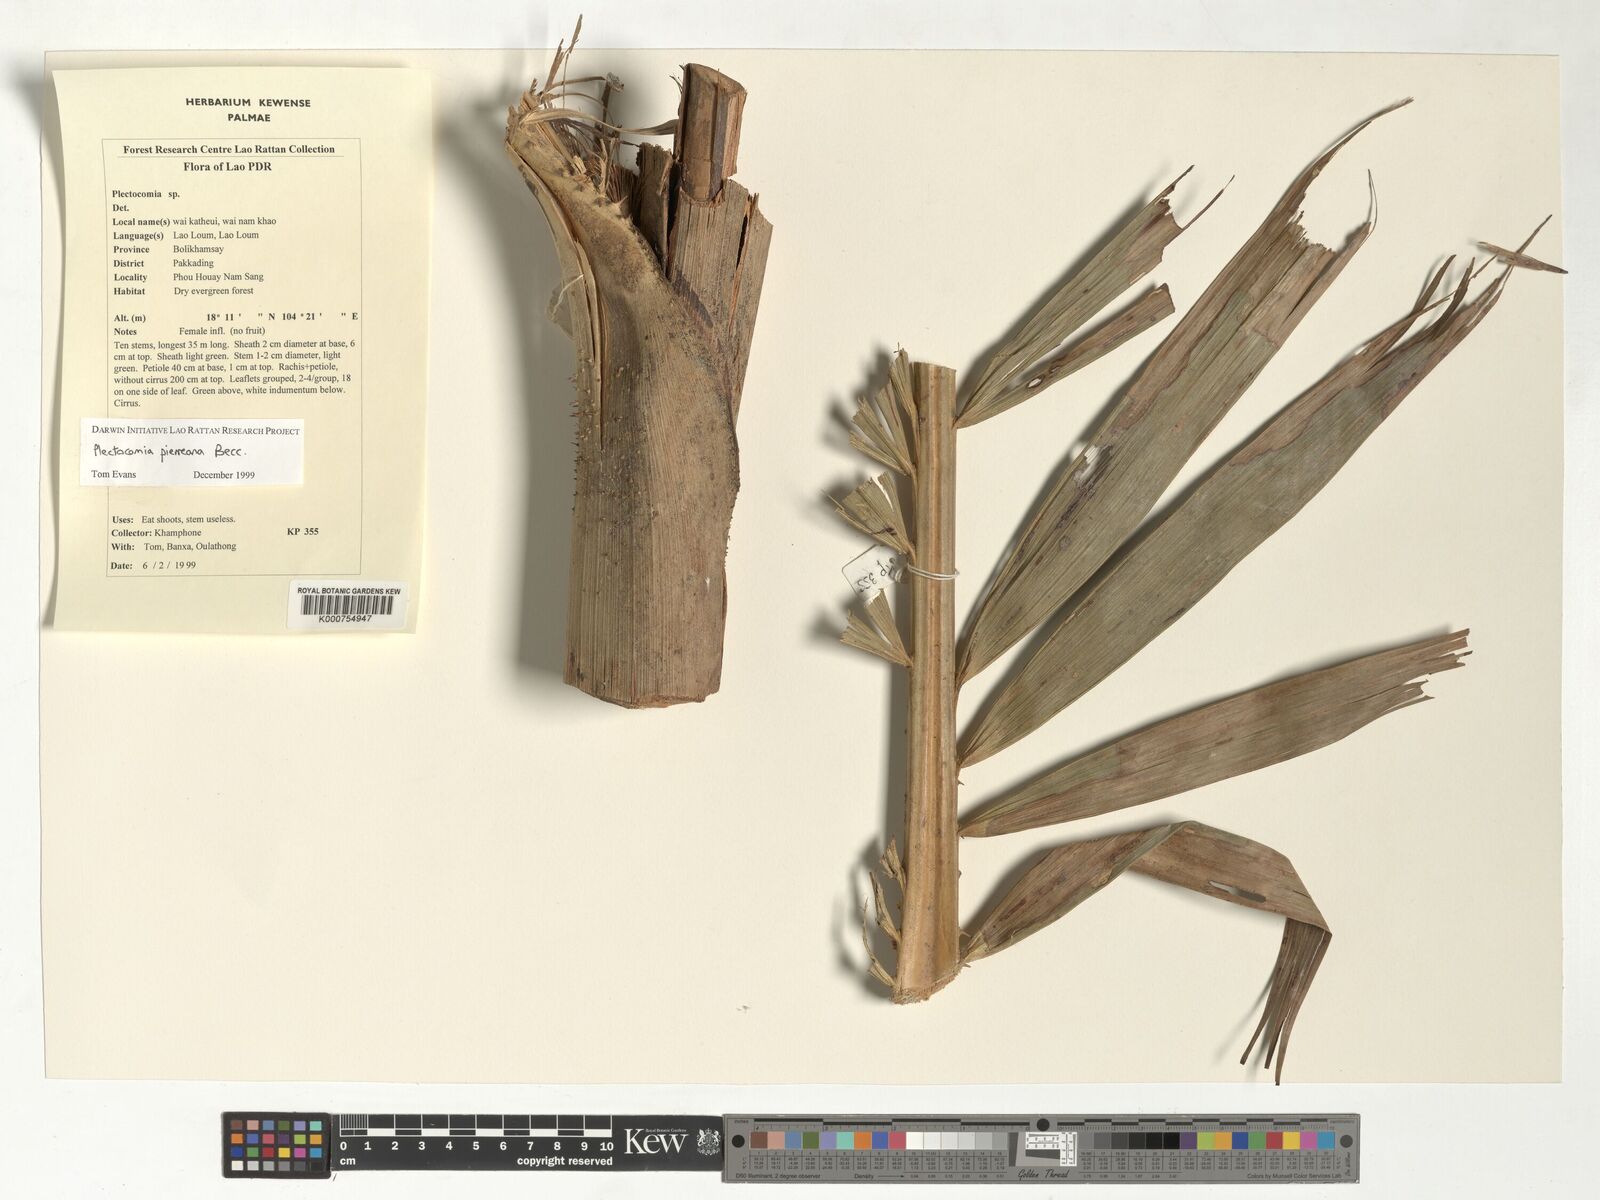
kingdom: Plantae
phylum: Tracheophyta
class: Liliopsida
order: Arecales
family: Arecaceae
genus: Plectocomia
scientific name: Plectocomia pierreana
